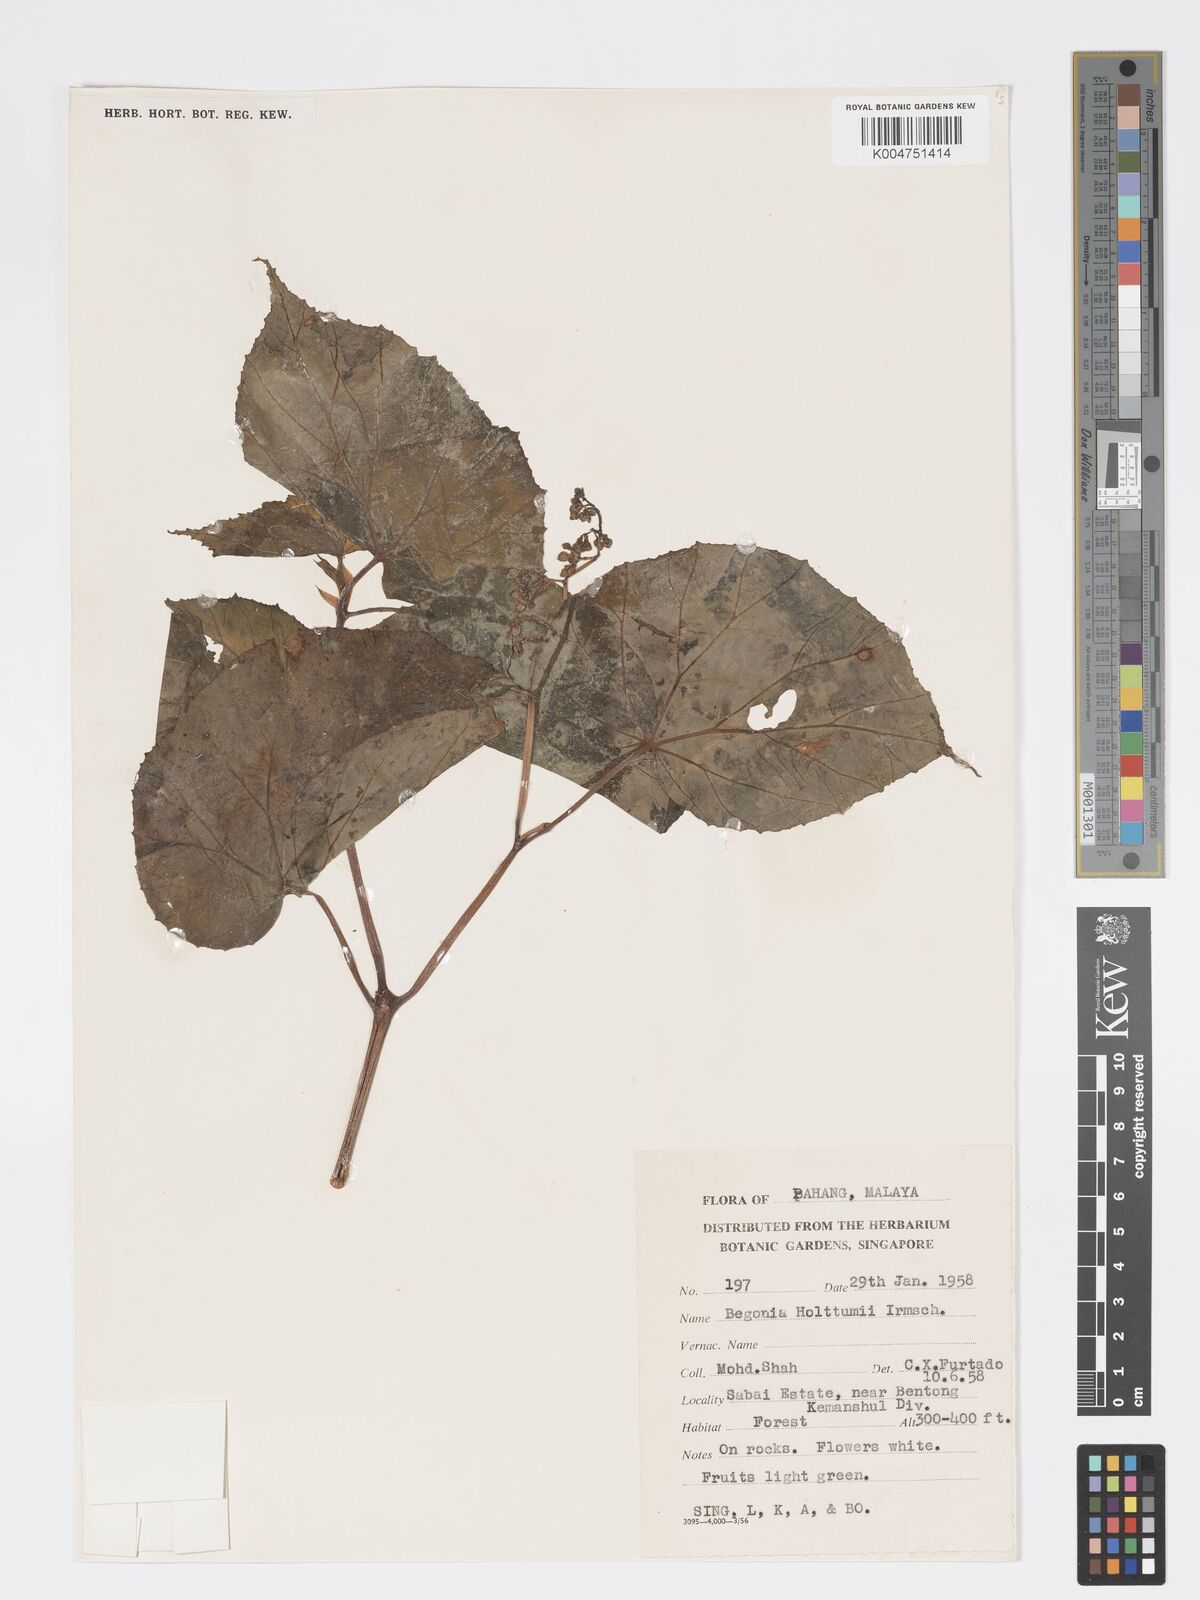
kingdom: Plantae
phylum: Tracheophyta
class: Magnoliopsida
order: Cucurbitales
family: Begoniaceae
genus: Begonia
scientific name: Begonia holttumii
